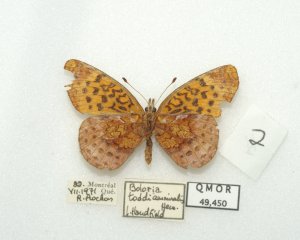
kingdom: Animalia
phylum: Arthropoda
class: Insecta
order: Lepidoptera
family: Nymphalidae
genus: Clossiana
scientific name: Clossiana toddi
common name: Meadow Fritillary
